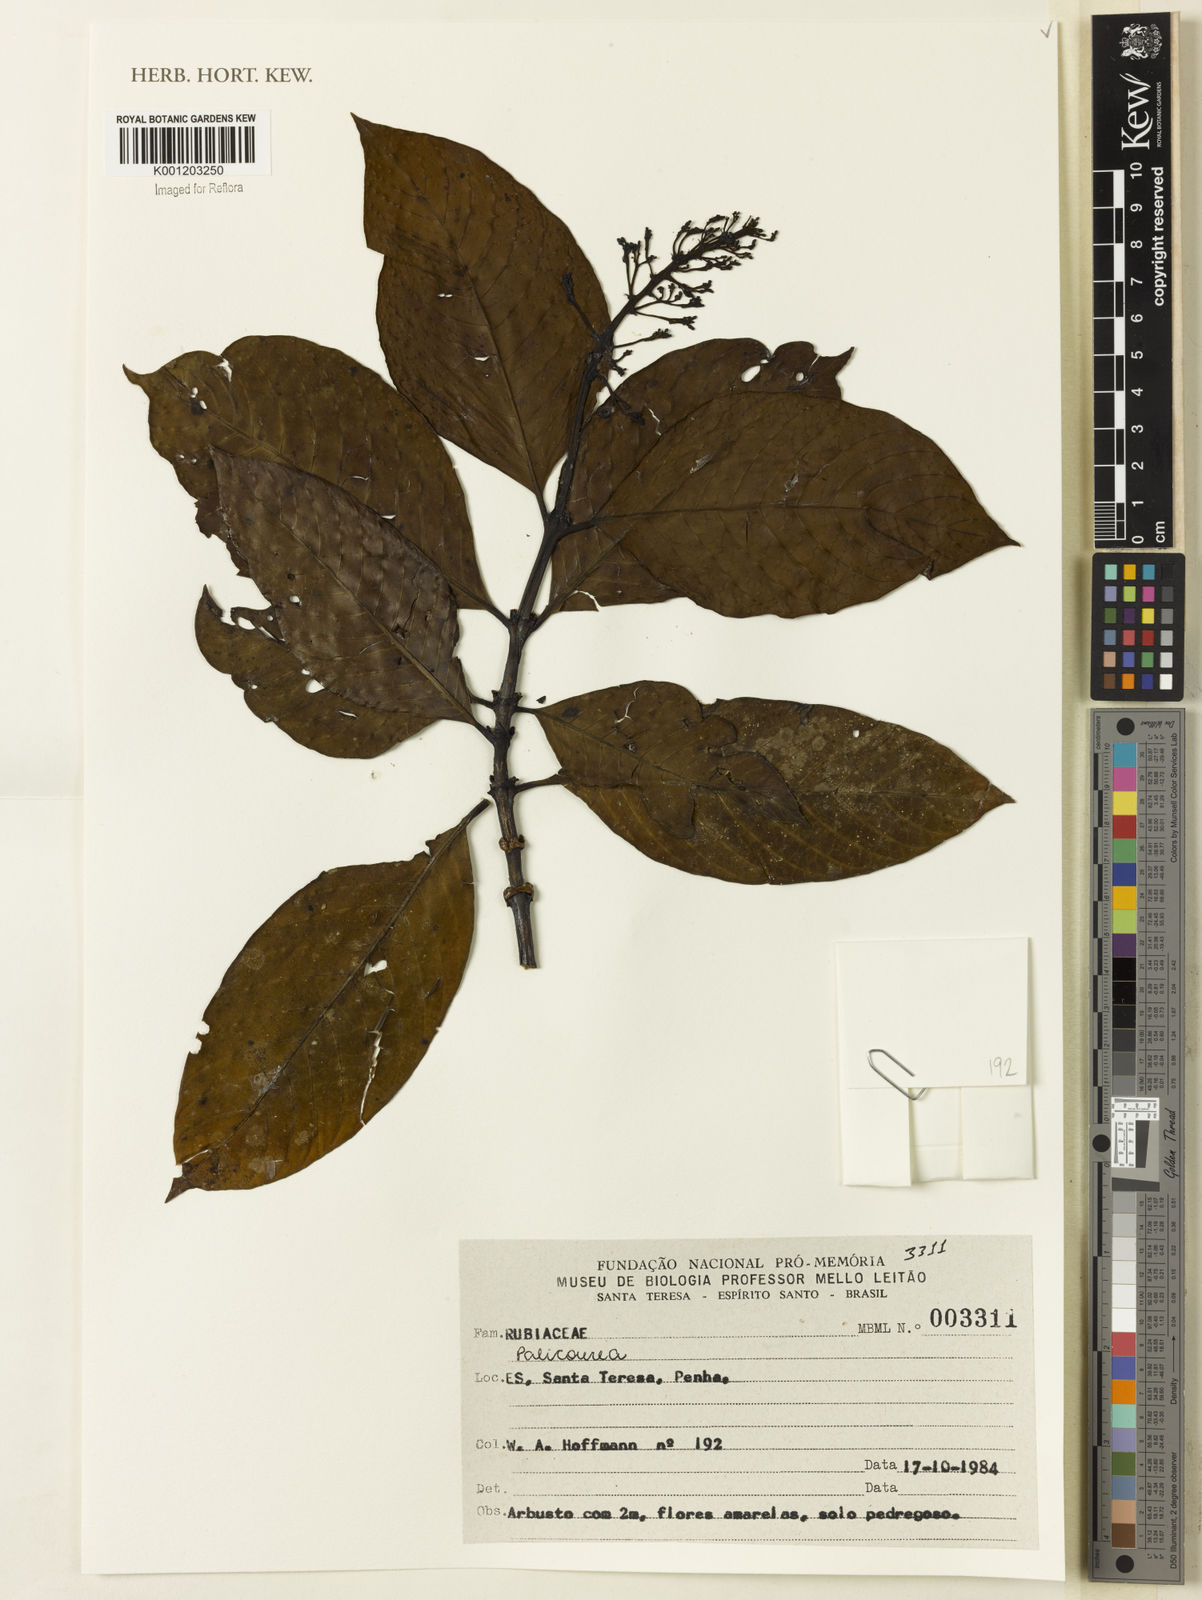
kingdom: Plantae
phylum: Tracheophyta
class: Magnoliopsida
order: Gentianales
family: Rubiaceae
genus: Palicourea
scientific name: Palicourea
